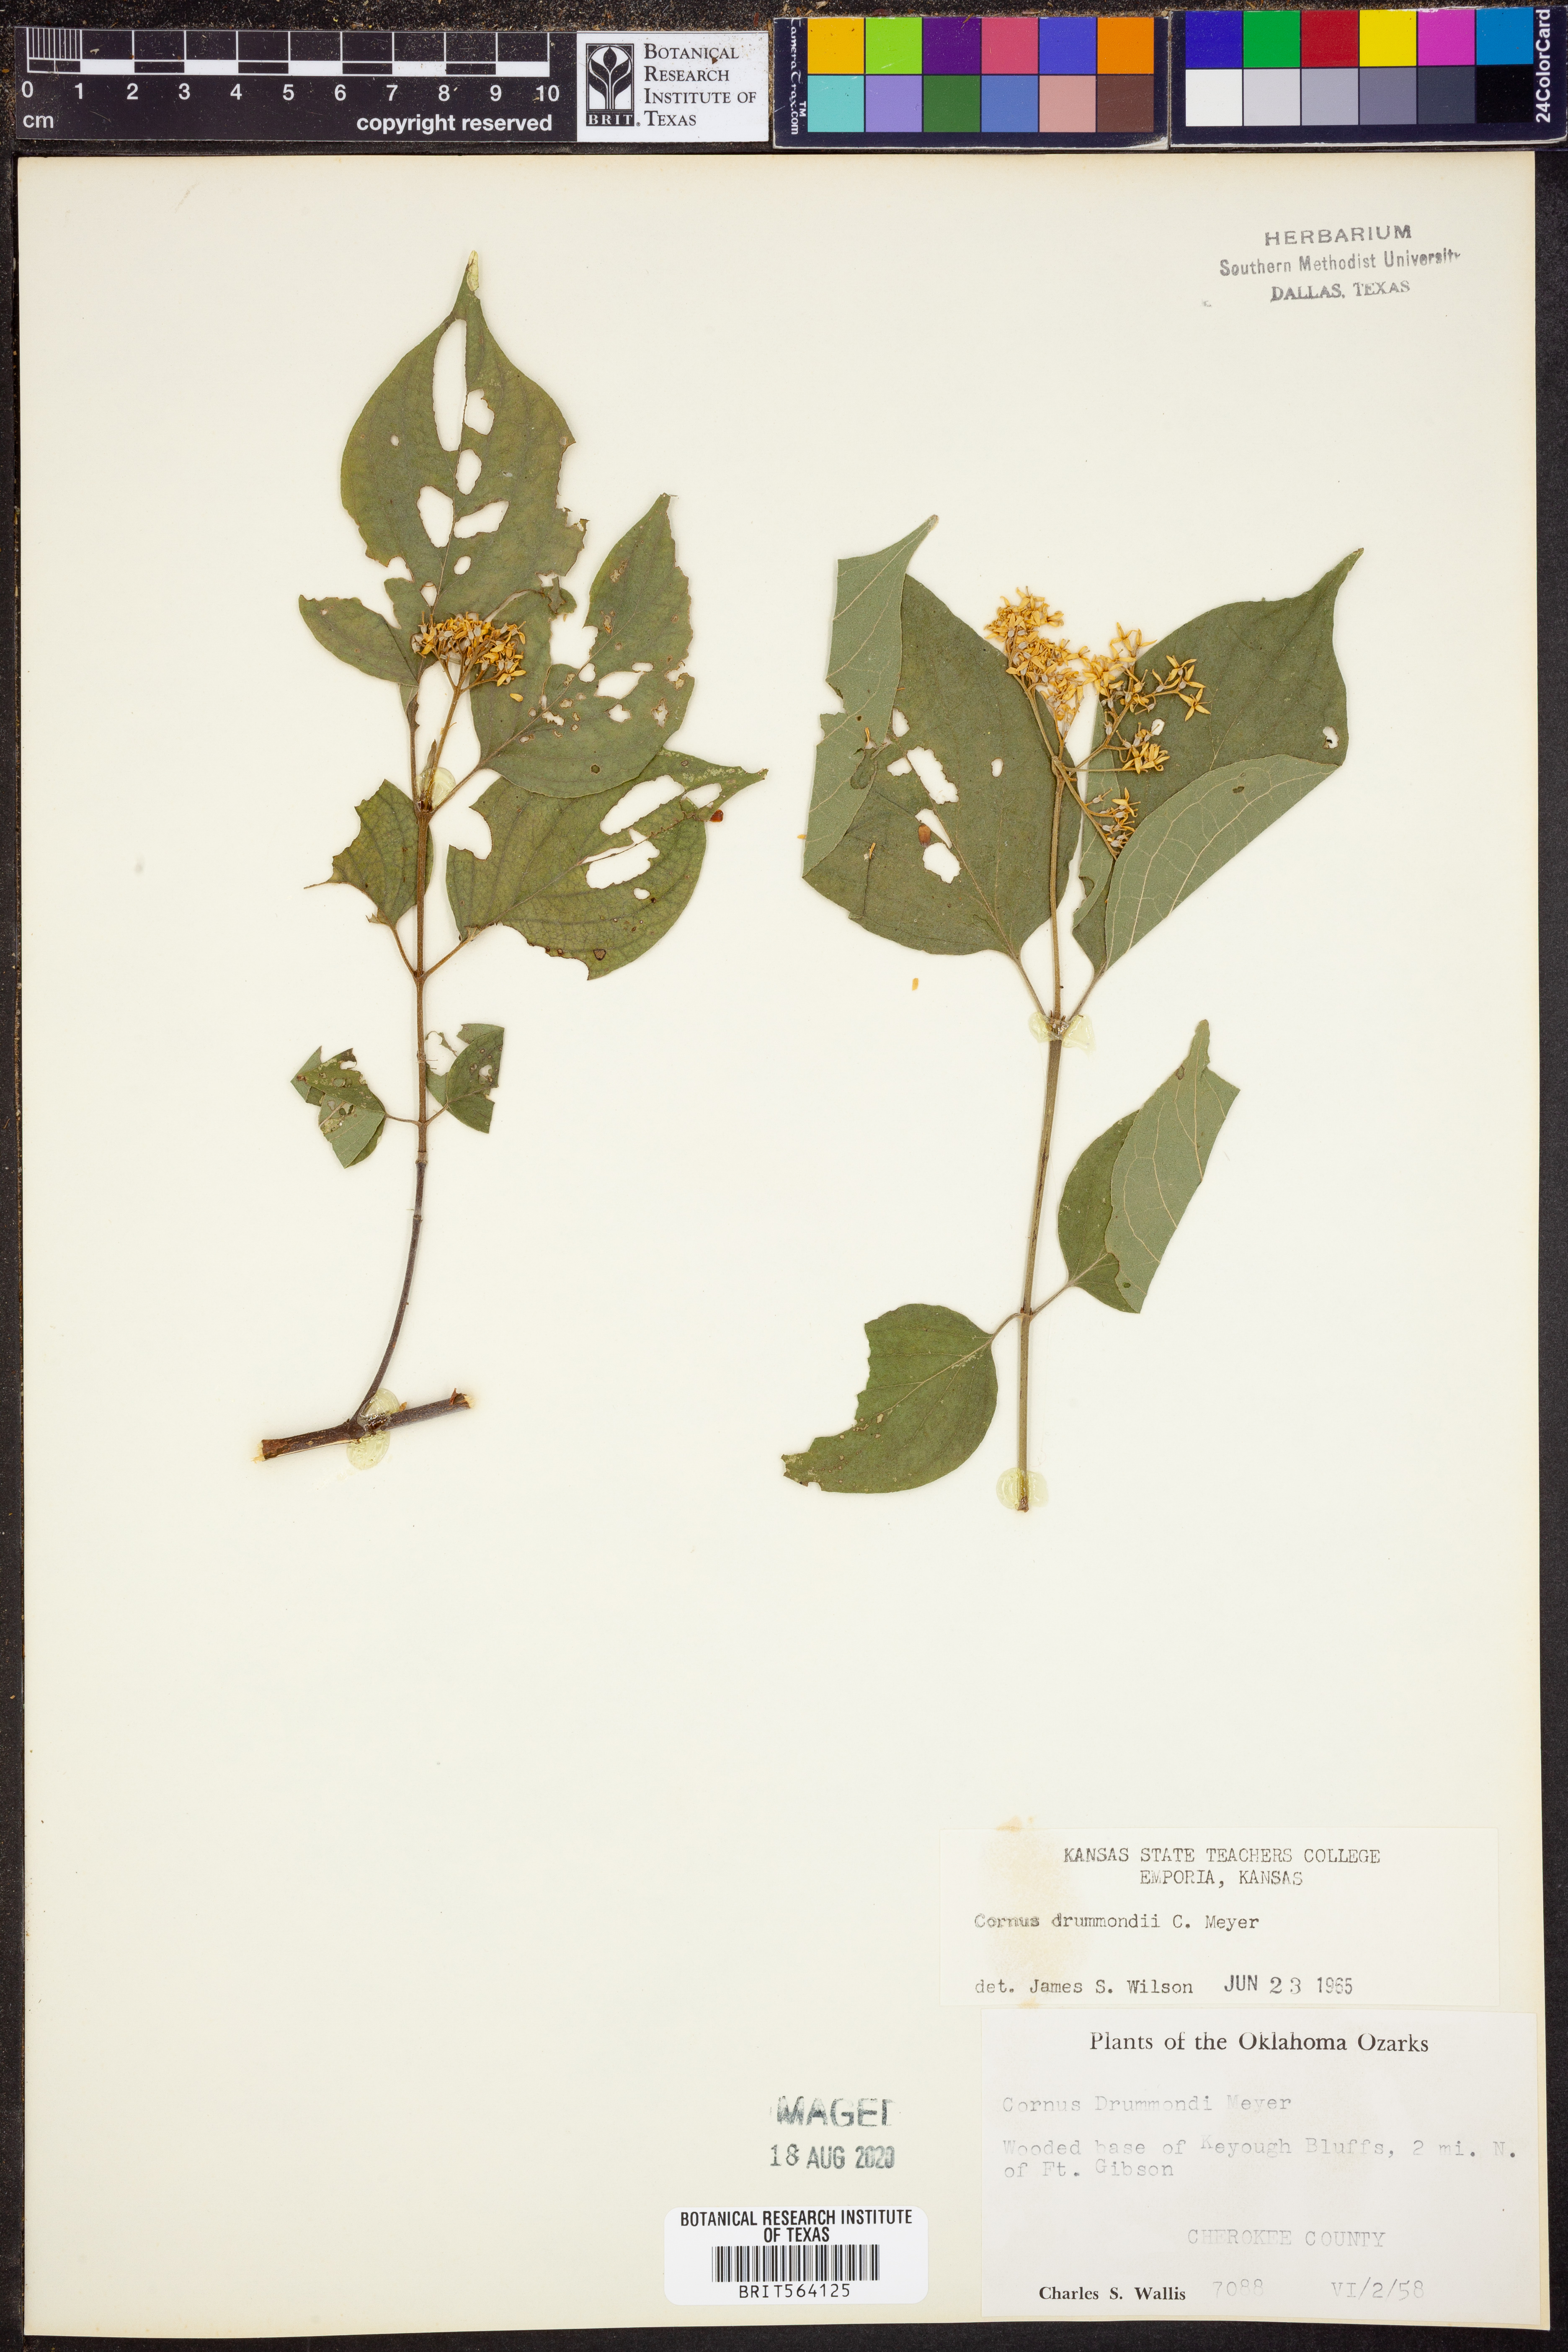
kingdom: Plantae
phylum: Tracheophyta
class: Magnoliopsida
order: Cornales
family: Cornaceae
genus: Cornus
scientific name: Cornus drummondii
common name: Rough-leaf dogwood
